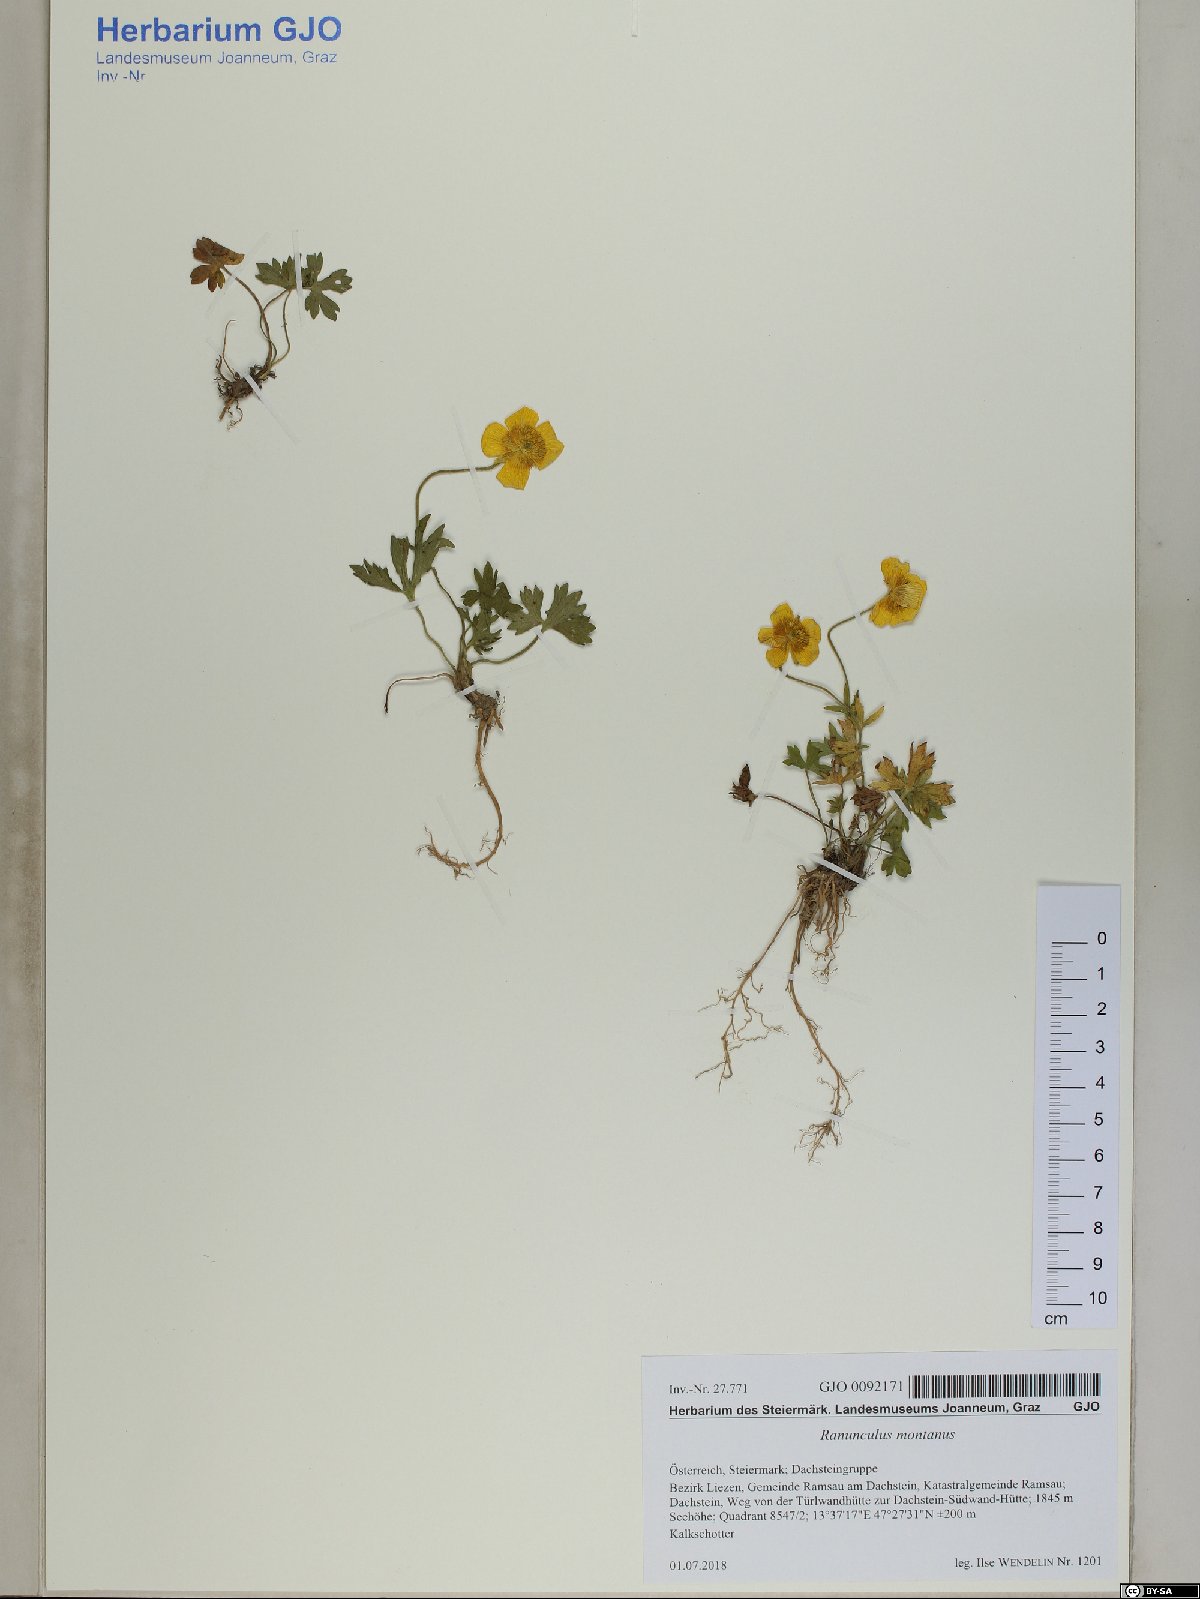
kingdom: Plantae
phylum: Tracheophyta
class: Magnoliopsida
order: Ranunculales
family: Ranunculaceae
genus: Ranunculus
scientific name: Ranunculus montanus
